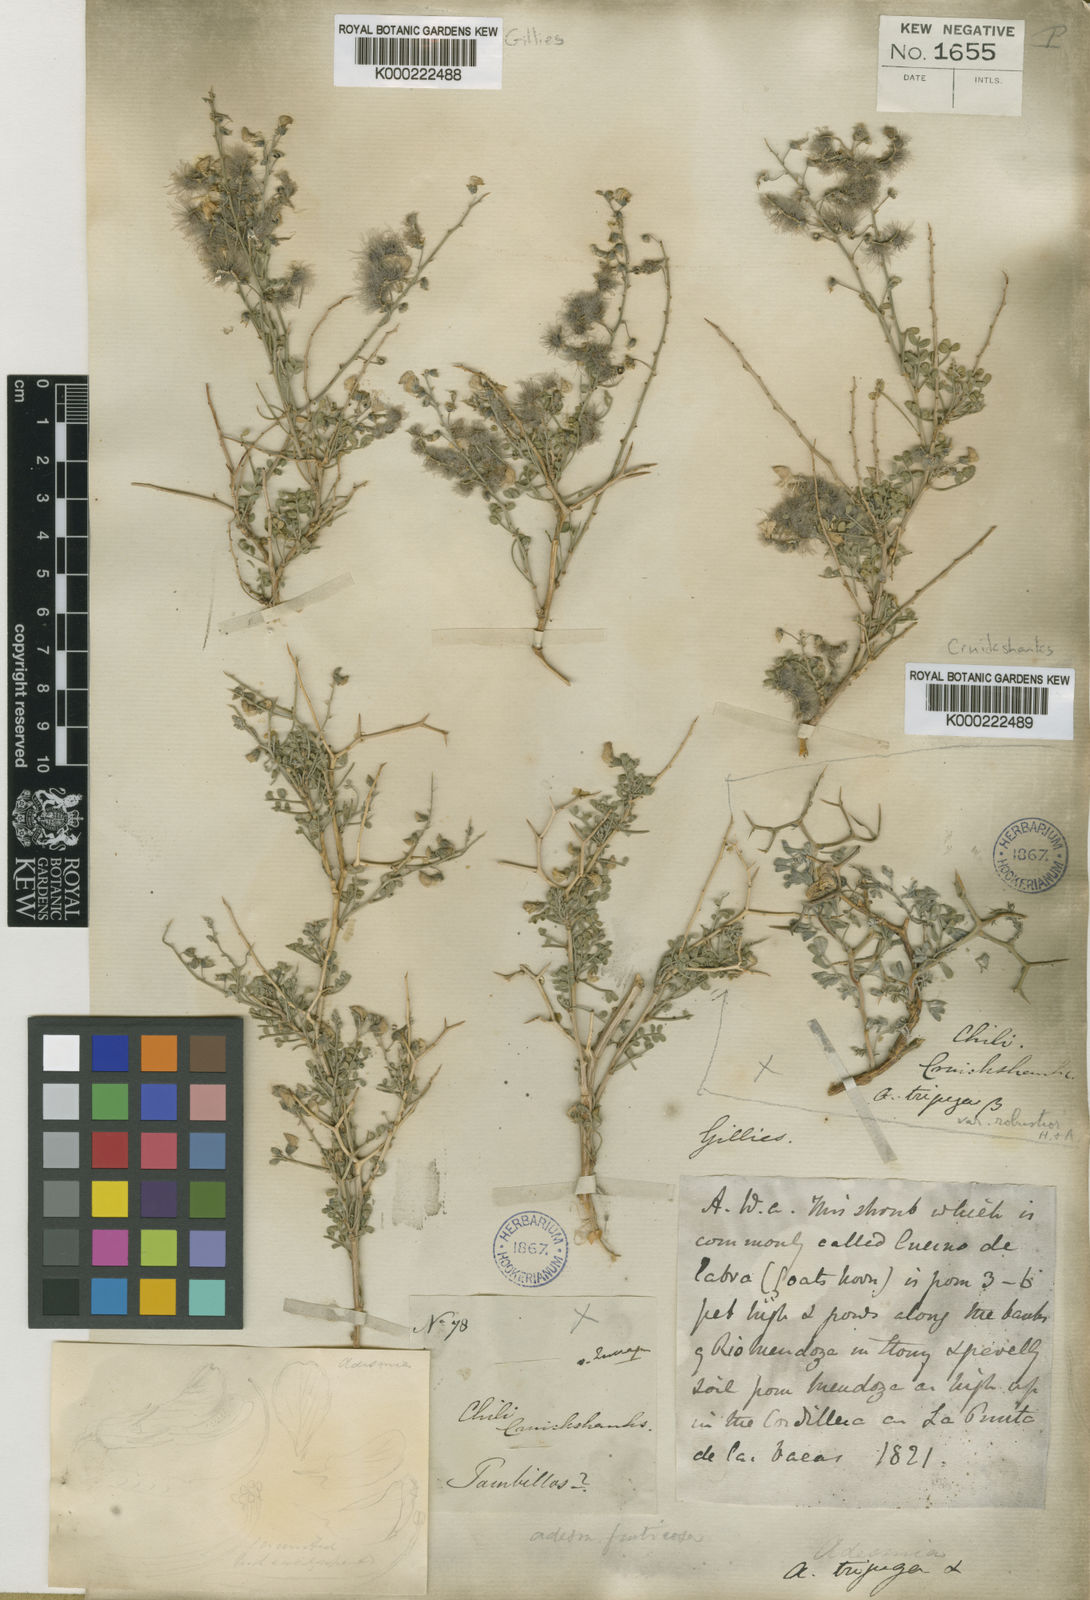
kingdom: Plantae
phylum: Tracheophyta
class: Magnoliopsida
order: Fabales
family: Fabaceae
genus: Adesmia
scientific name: Adesmia trijuga
